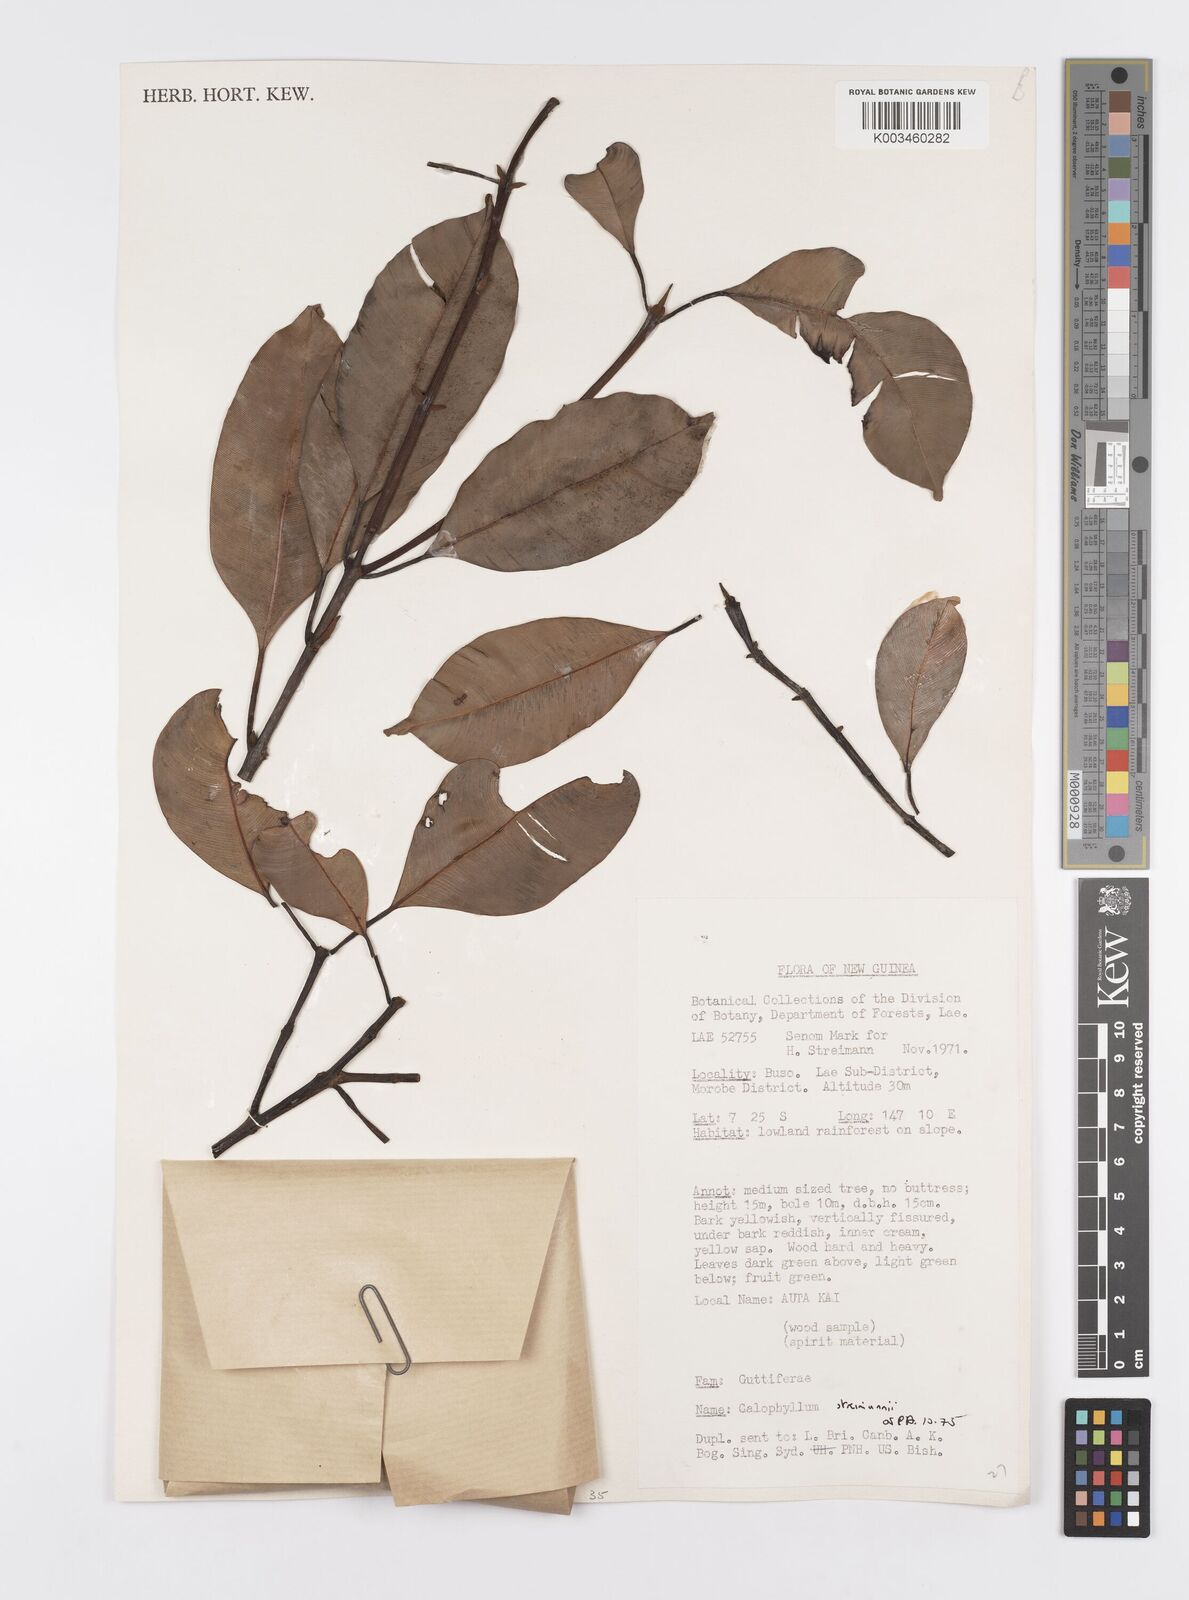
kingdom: Plantae
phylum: Tracheophyta
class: Magnoliopsida
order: Malpighiales
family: Calophyllaceae
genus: Calophyllum
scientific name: Calophyllum streimannii
